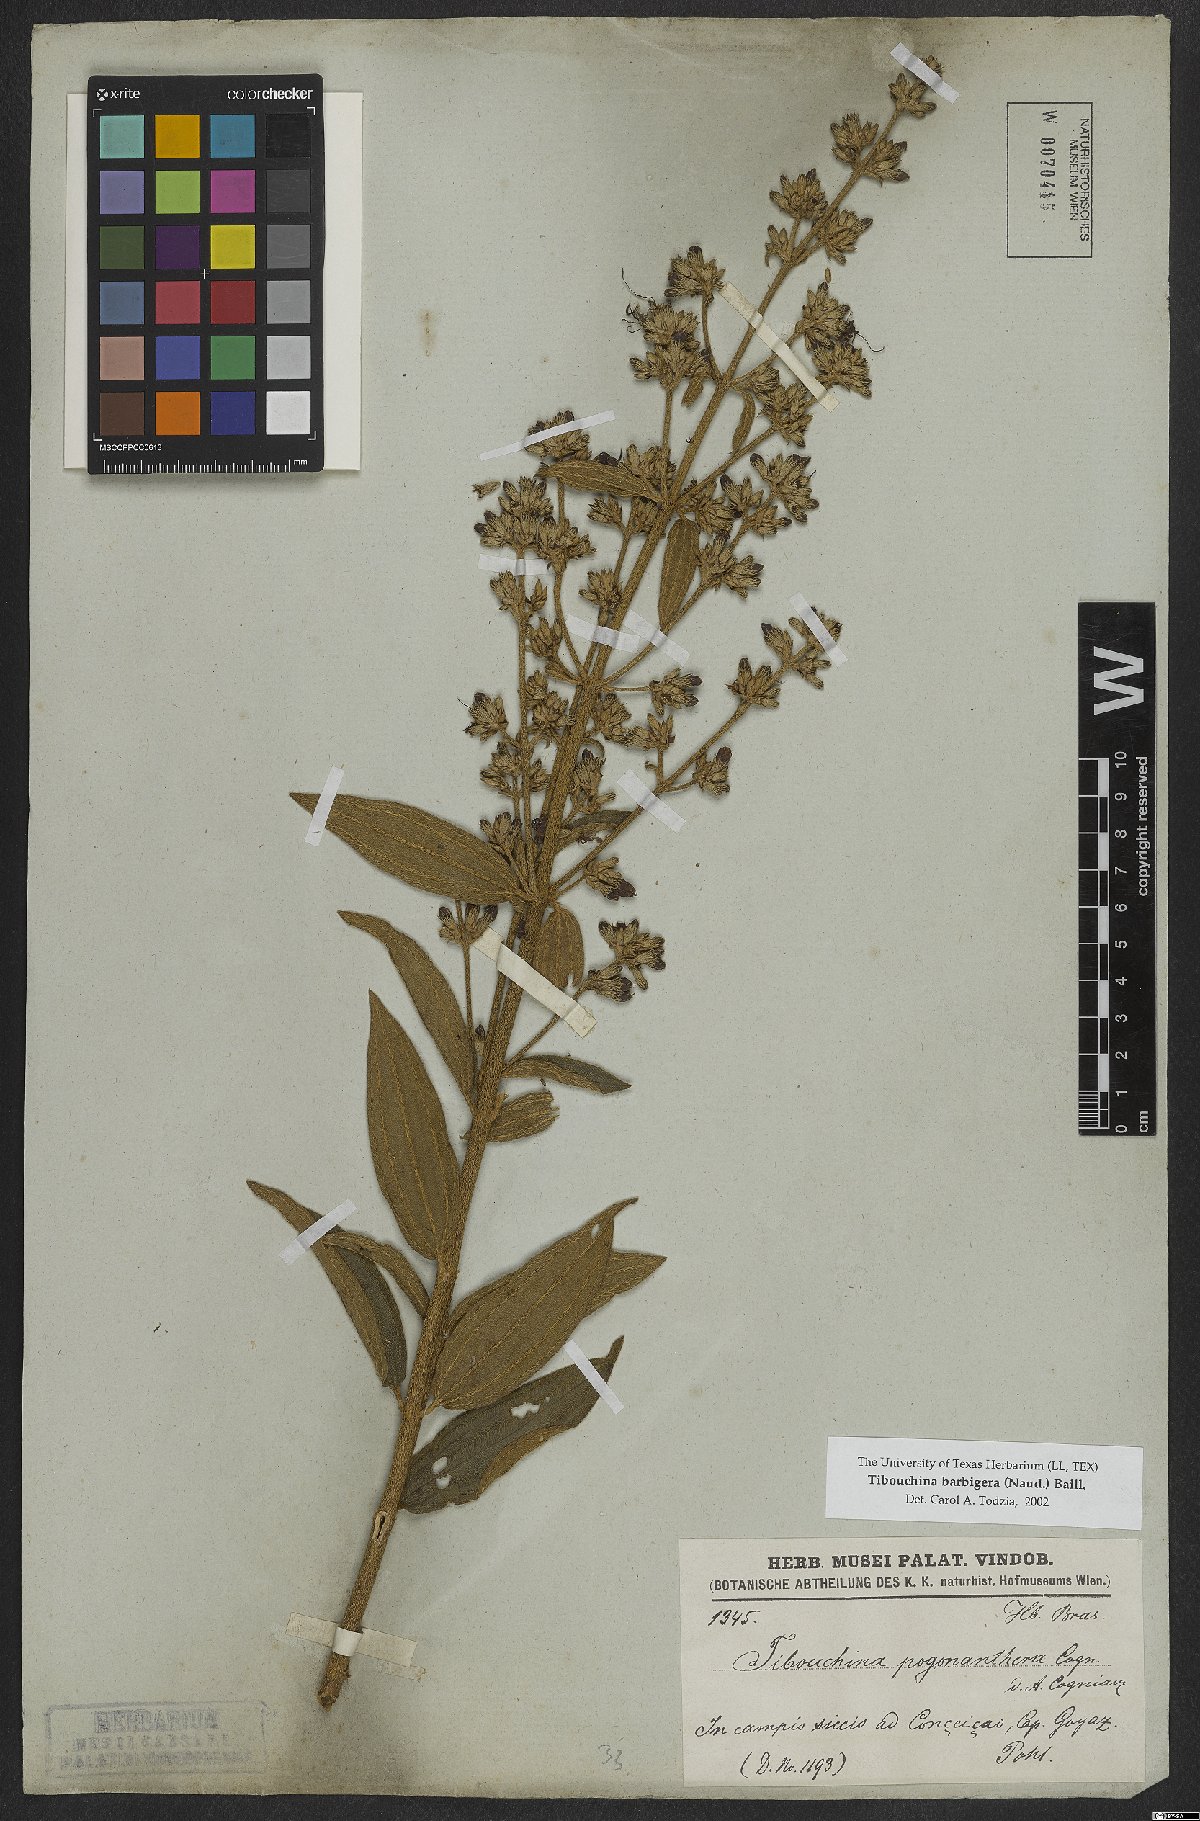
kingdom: Plantae
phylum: Tracheophyta
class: Magnoliopsida
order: Myrtales
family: Melastomataceae
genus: Pleroma
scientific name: Pleroma barbigerum
